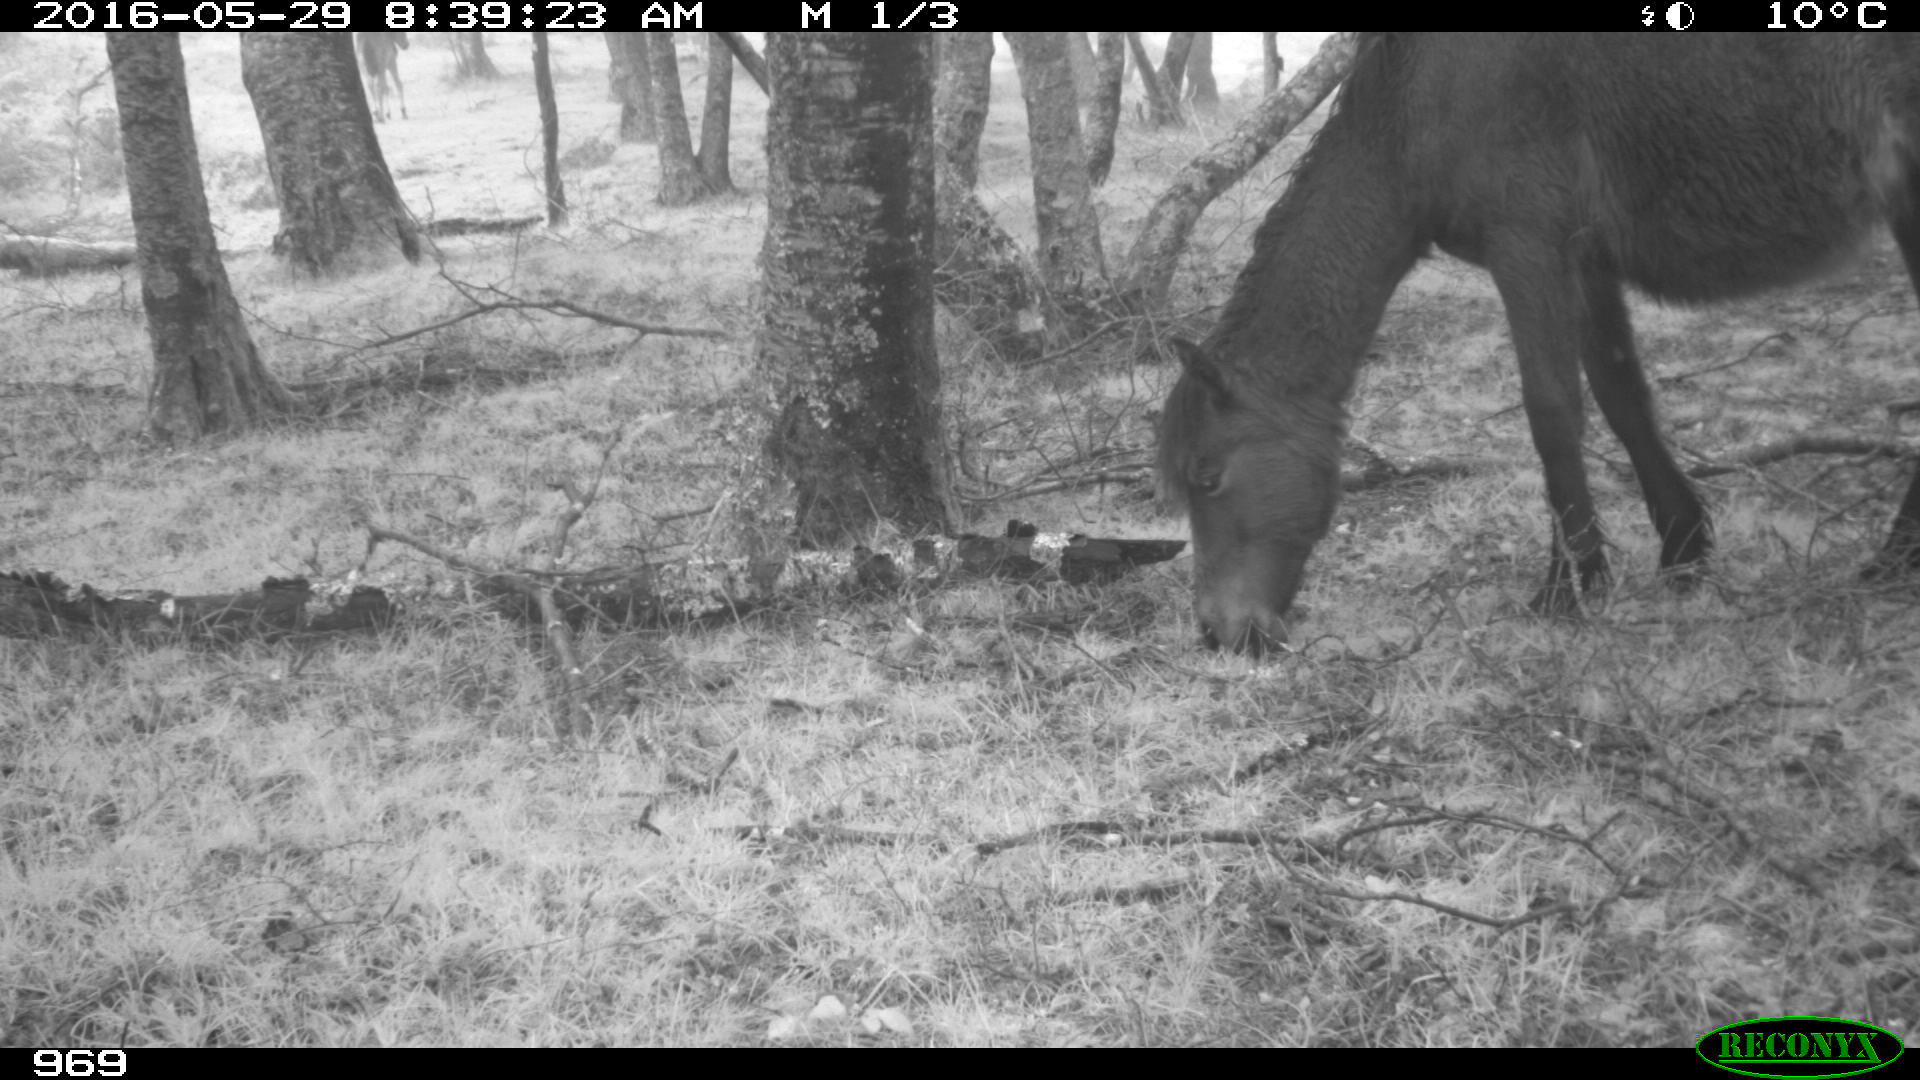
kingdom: Animalia
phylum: Chordata
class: Mammalia
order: Perissodactyla
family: Equidae
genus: Equus
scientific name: Equus caballus
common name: Horse
